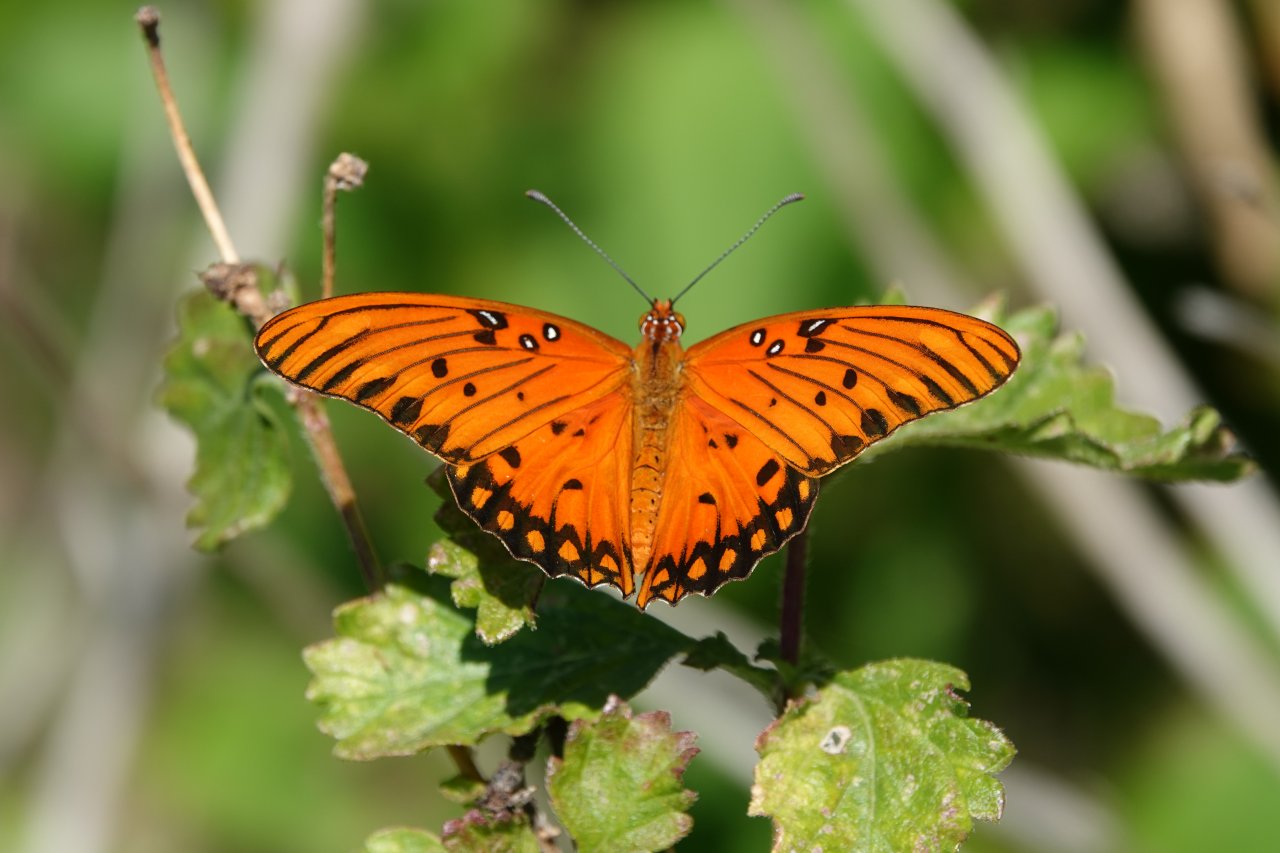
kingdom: Animalia
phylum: Arthropoda
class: Insecta
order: Lepidoptera
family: Nymphalidae
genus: Dione
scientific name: Dione vanillae
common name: Gulf Fritillary
